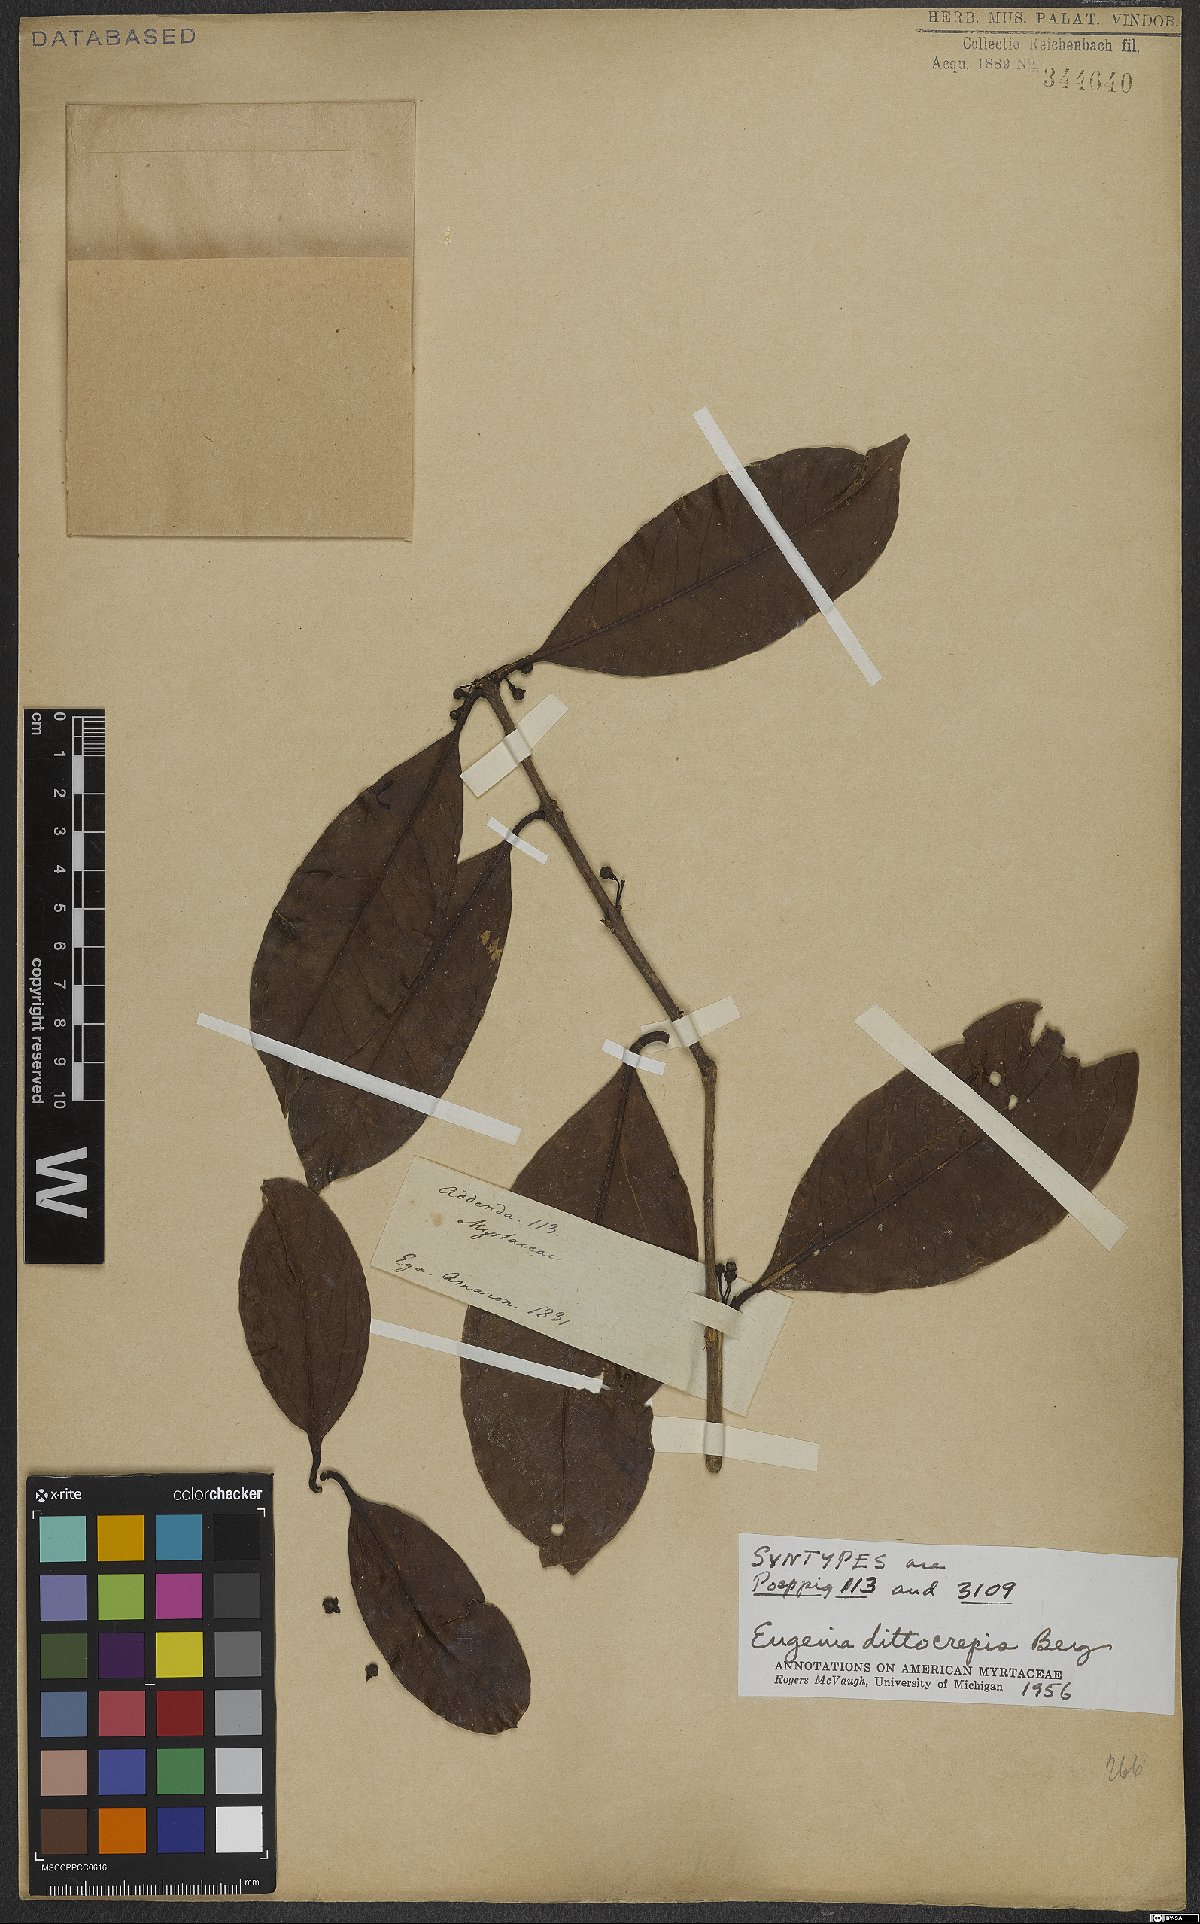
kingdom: Plantae
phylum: Tracheophyta
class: Magnoliopsida
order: Myrtales
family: Myrtaceae
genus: Eugenia
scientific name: Eugenia dittocrepis
